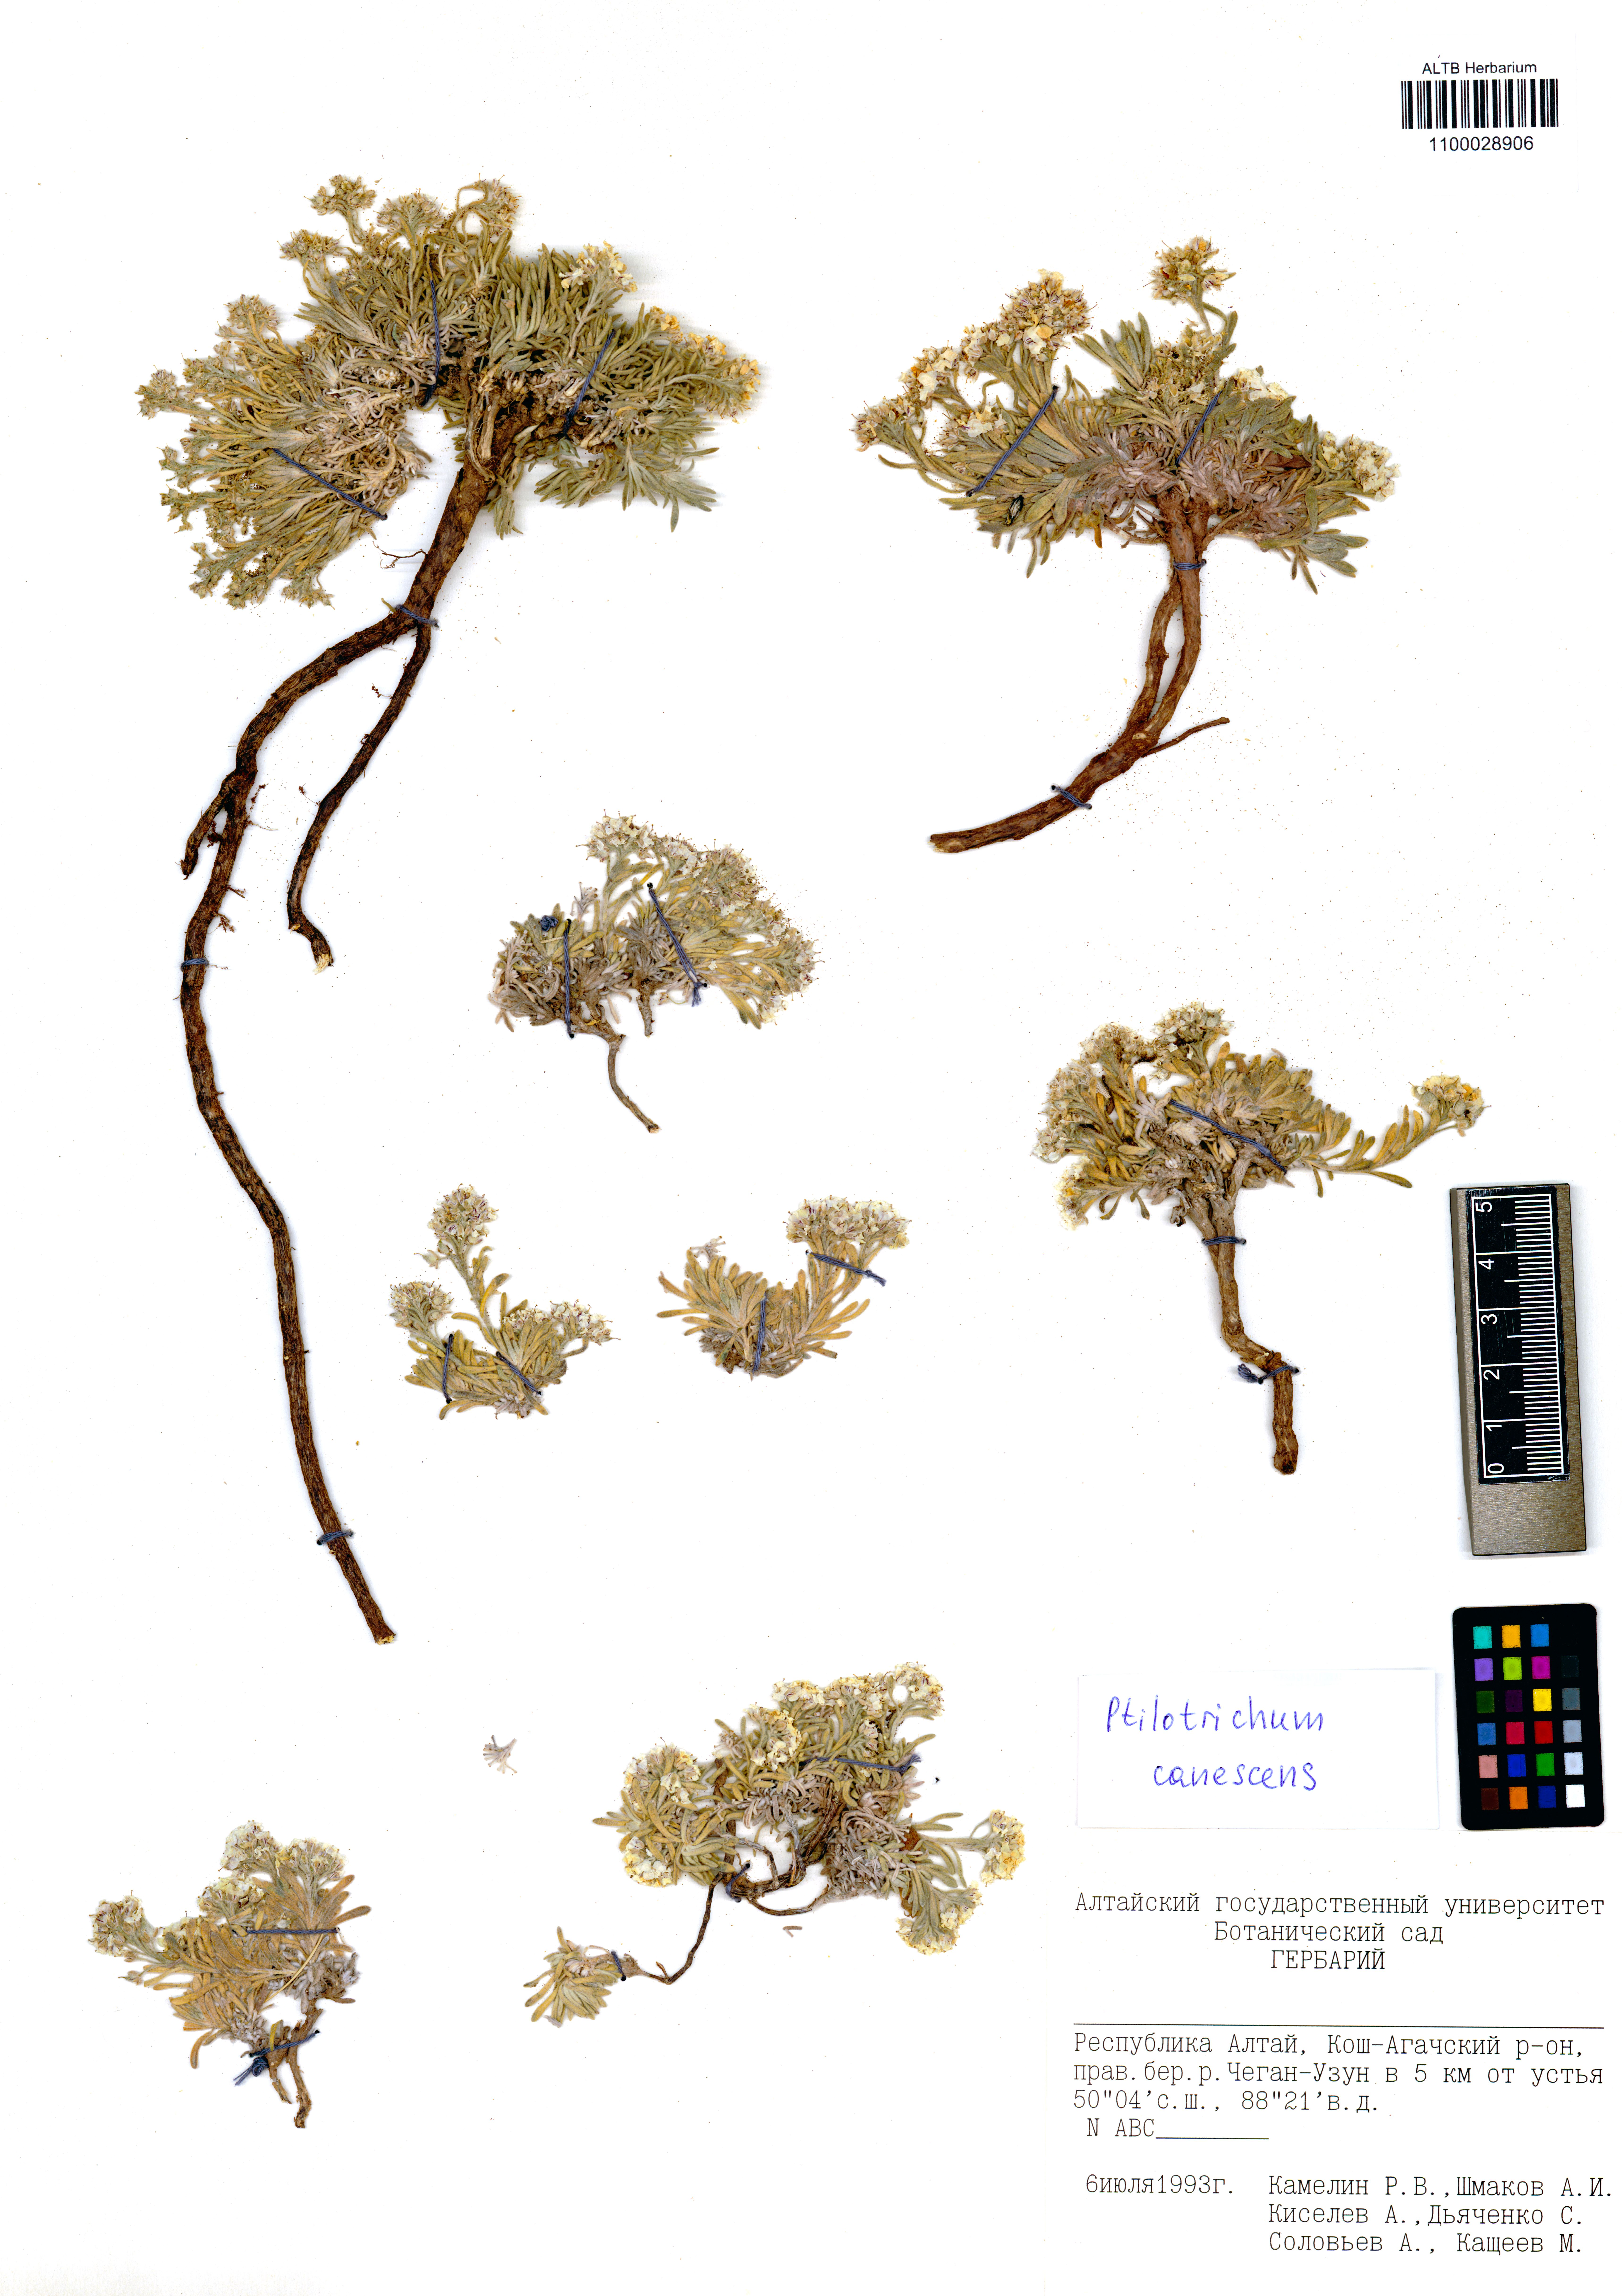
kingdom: Plantae
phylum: Tracheophyta
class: Magnoliopsida
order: Brassicales
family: Brassicaceae
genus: Stevenia
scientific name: Stevenia canescens
